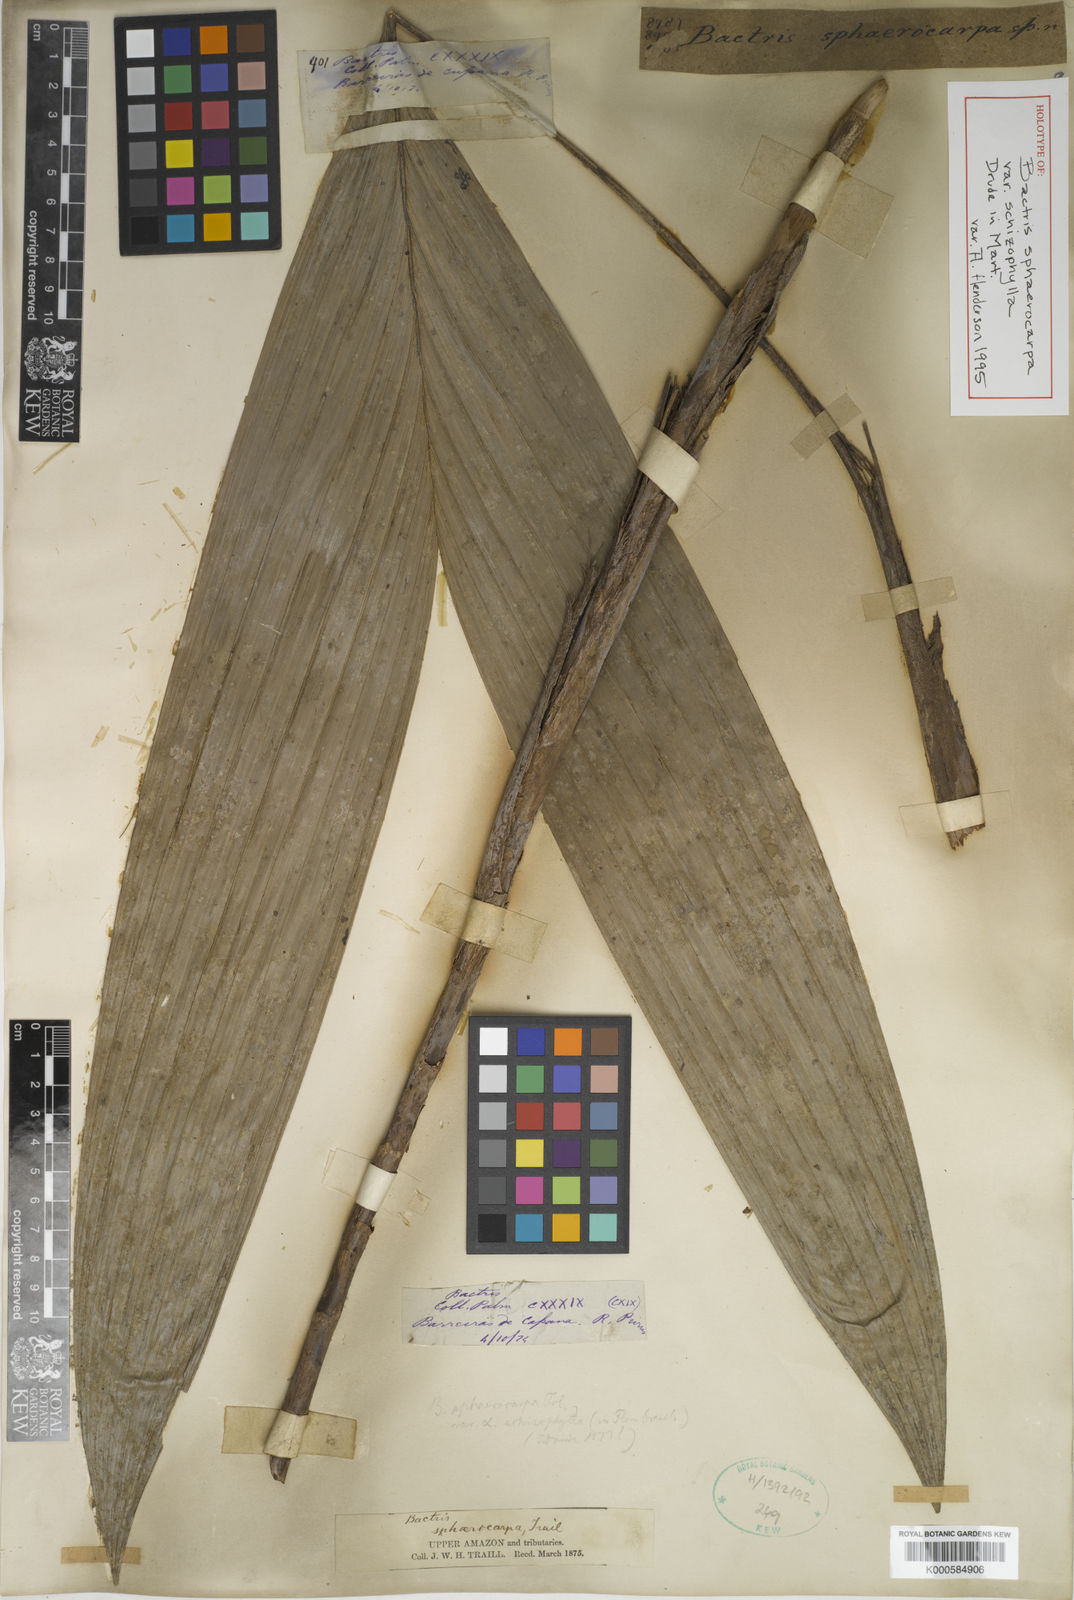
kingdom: Plantae
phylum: Tracheophyta
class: Liliopsida
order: Arecales
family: Arecaceae
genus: Bactris
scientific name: Bactris sphaerocarpa
